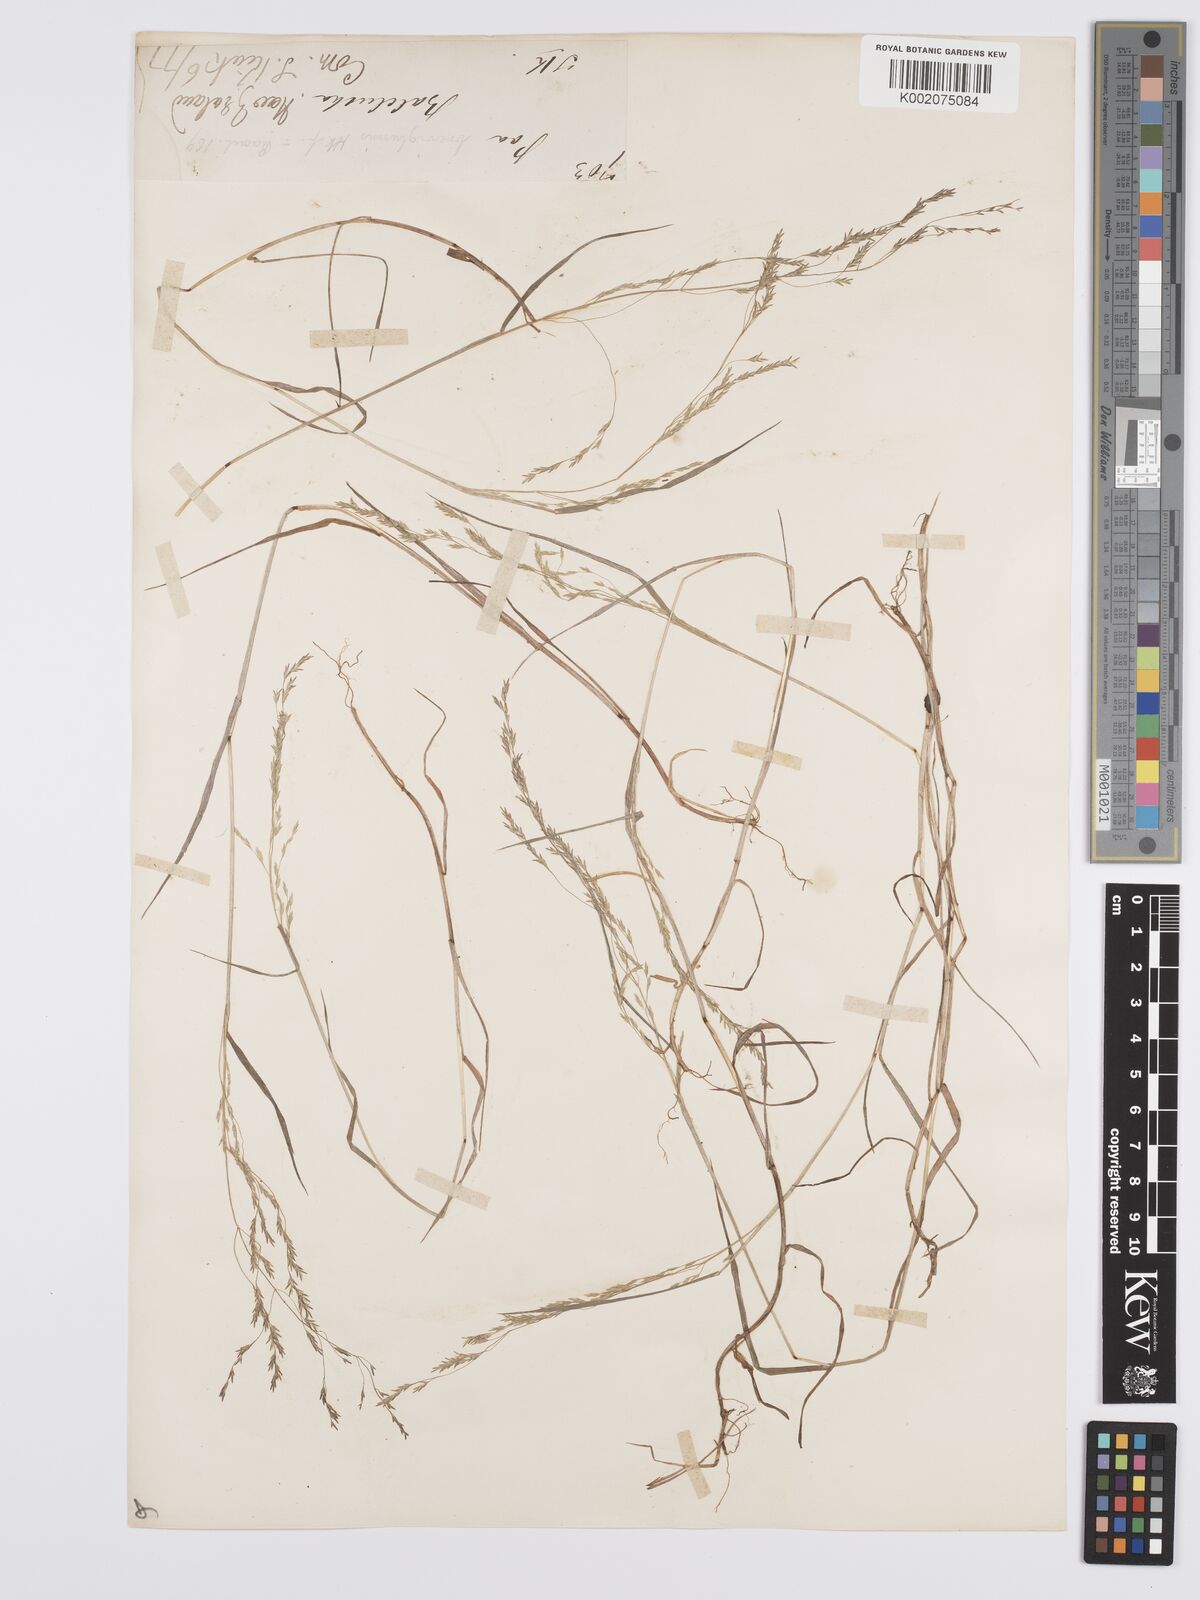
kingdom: Plantae
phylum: Tracheophyta
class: Liliopsida
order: Poales
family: Poaceae
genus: Poa
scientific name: Poa matthewsii
